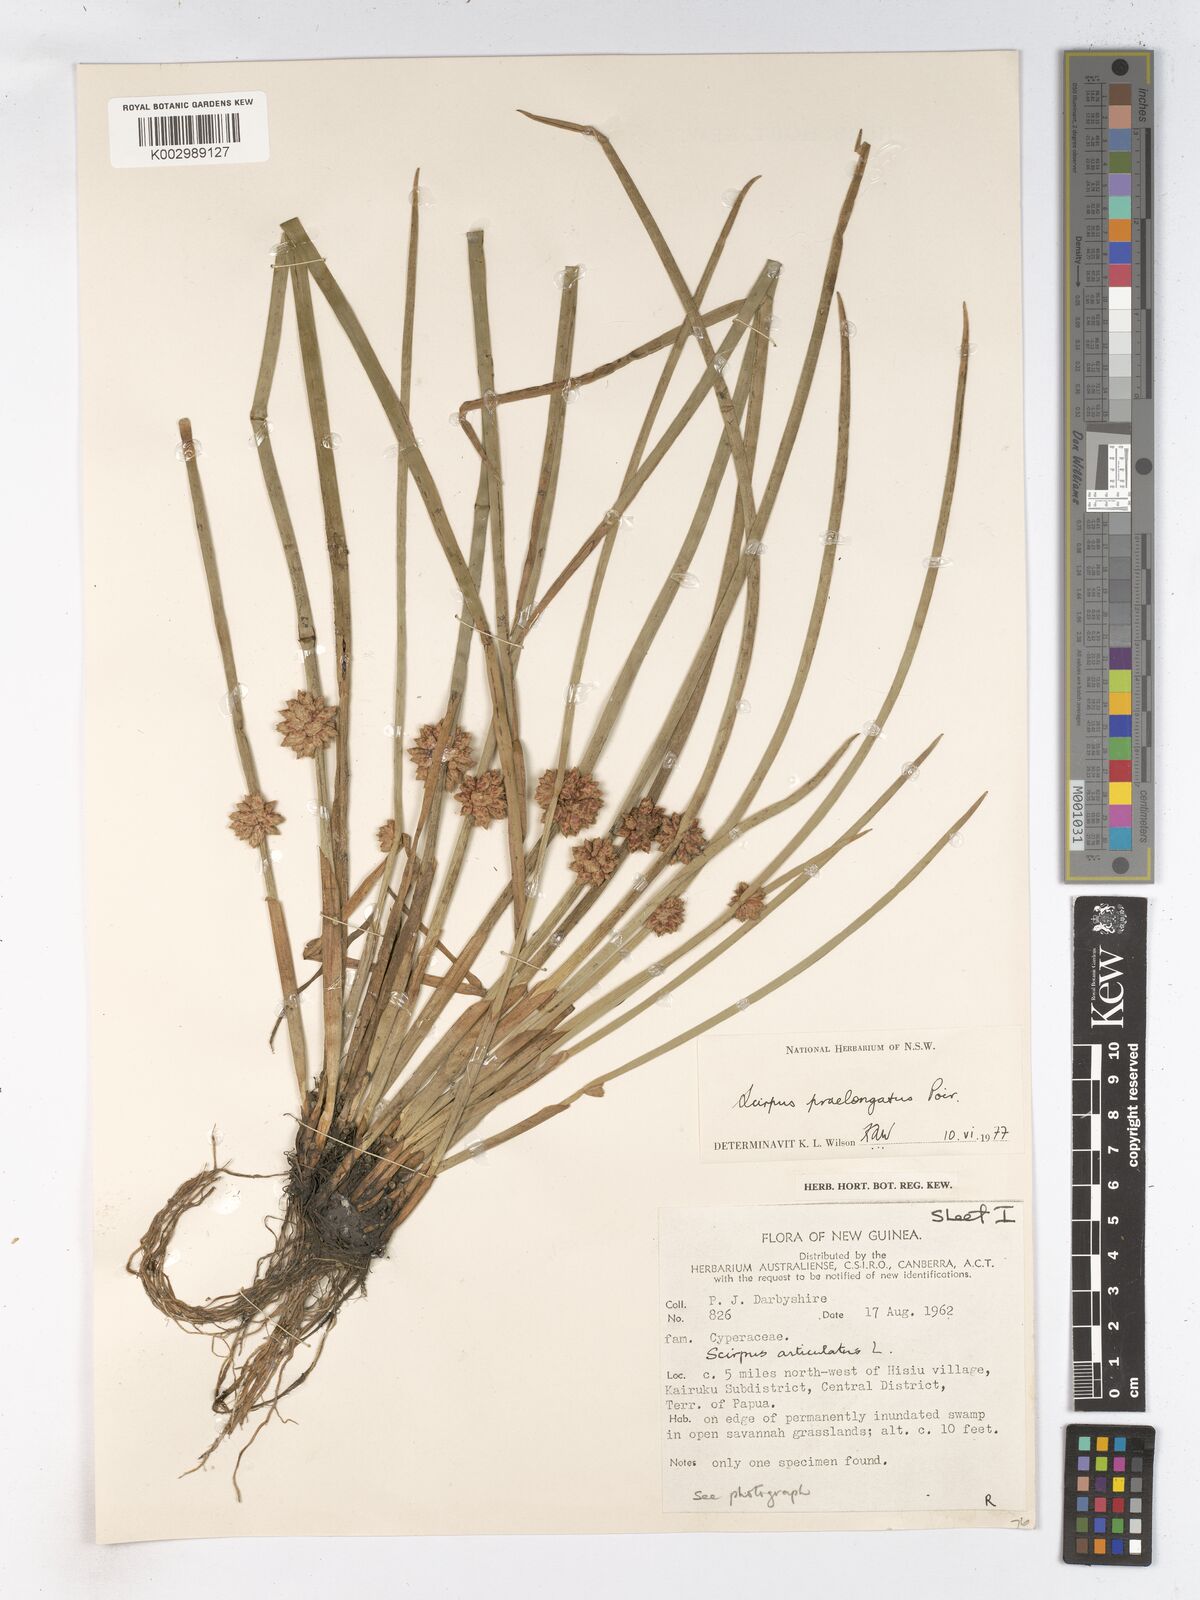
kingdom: Plantae
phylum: Tracheophyta
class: Liliopsida
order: Poales
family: Cyperaceae
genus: Schoenoplectiella
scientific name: Schoenoplectiella praelongata
